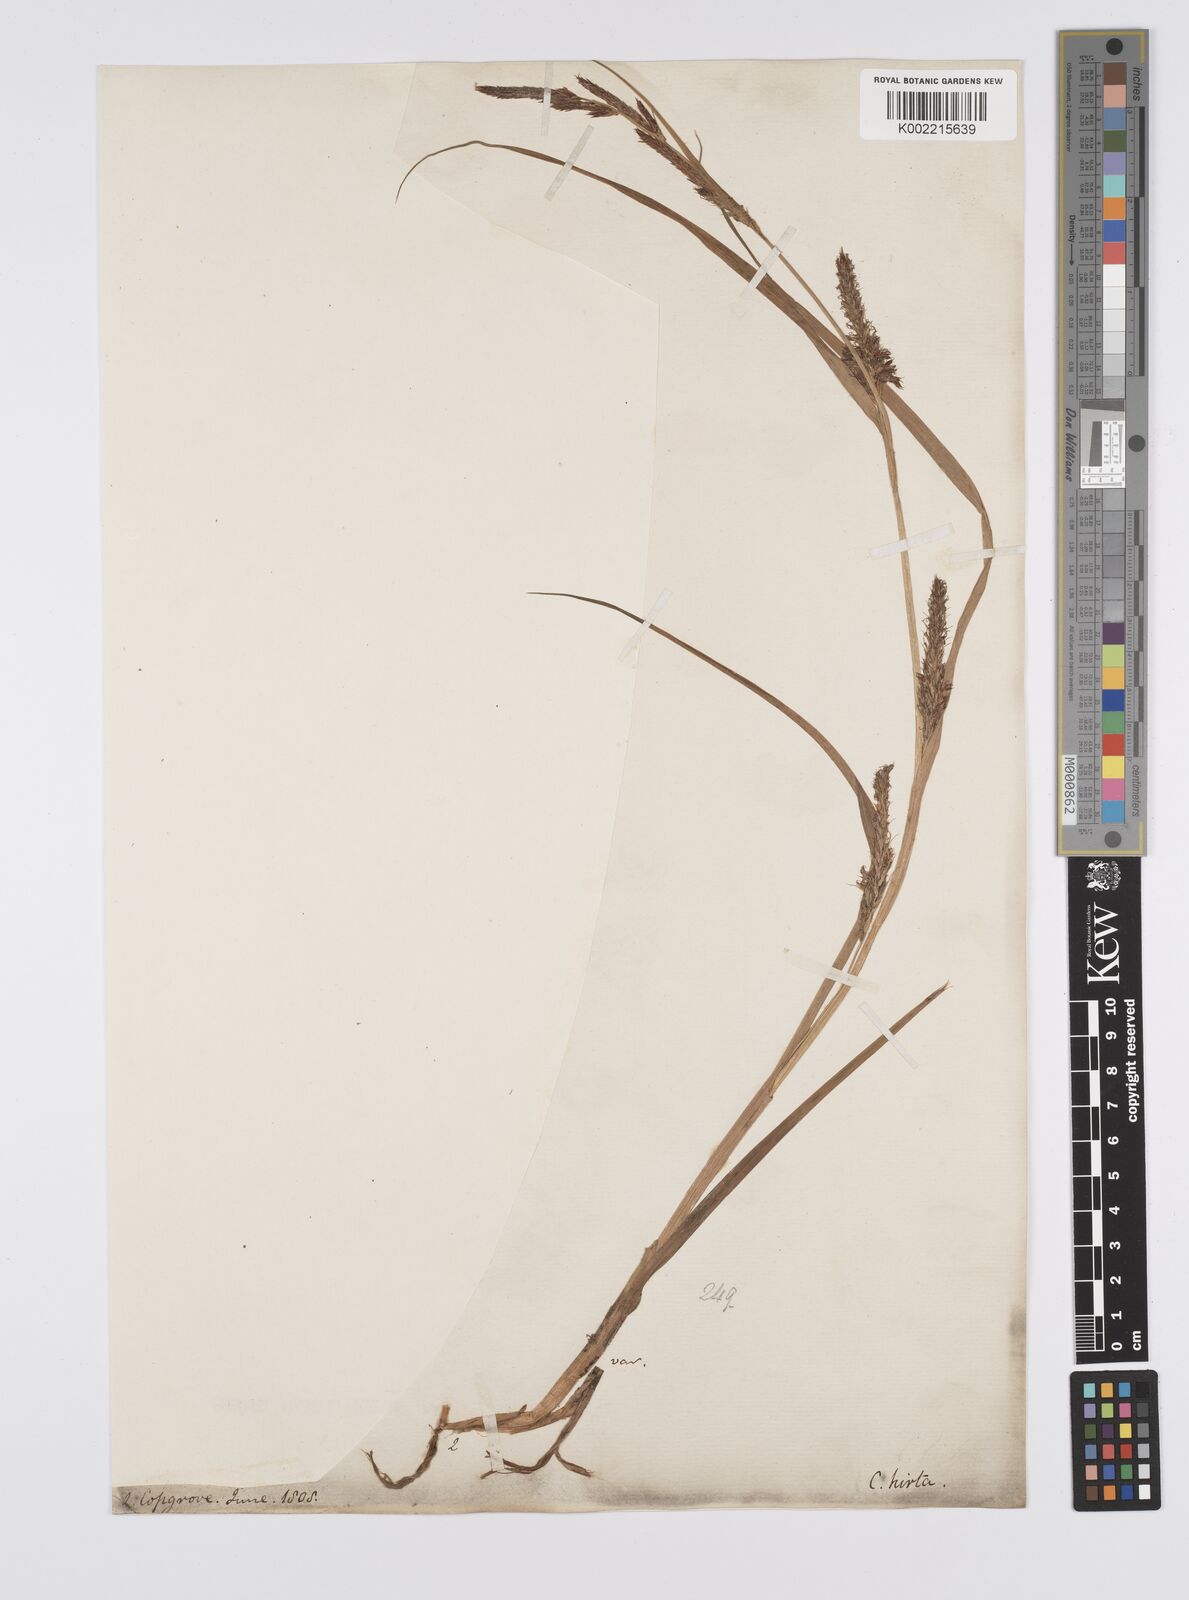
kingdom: Plantae
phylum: Tracheophyta
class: Liliopsida
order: Poales
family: Cyperaceae
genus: Carex
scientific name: Carex hirta
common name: Hairy sedge
